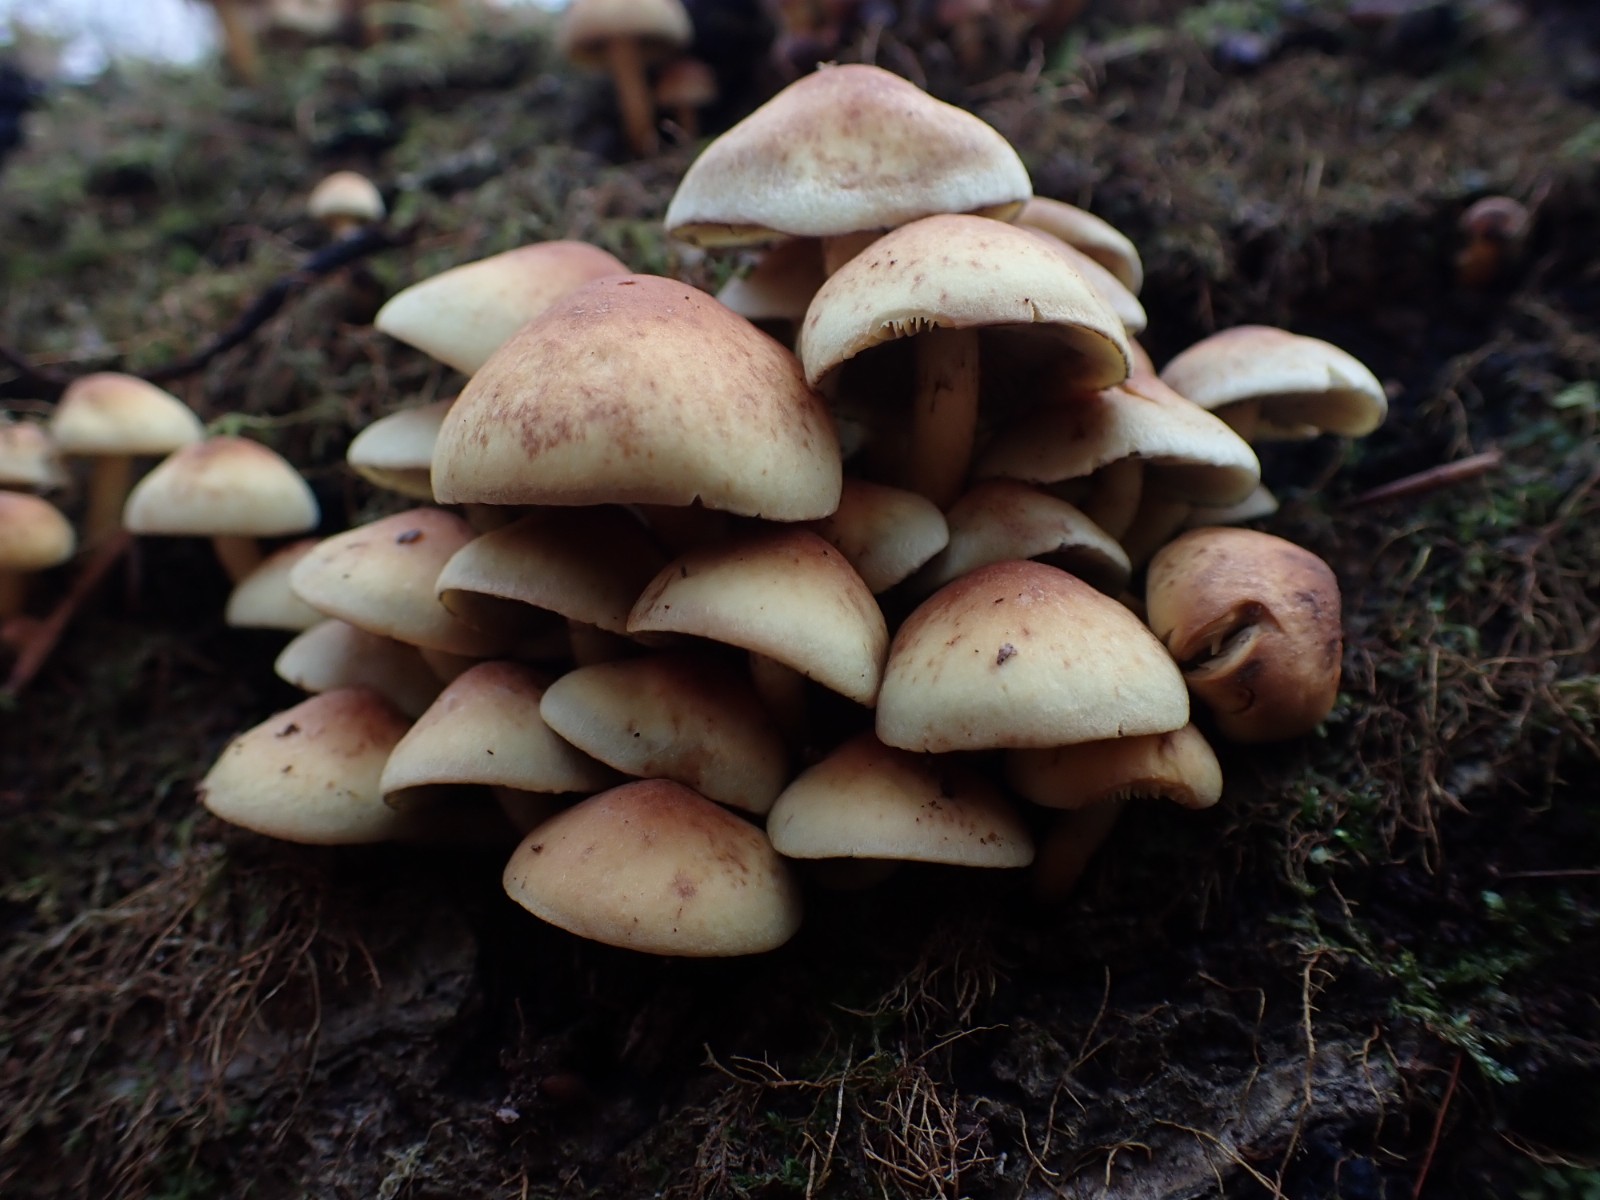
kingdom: Fungi
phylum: Basidiomycota
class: Agaricomycetes
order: Agaricales
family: Strophariaceae
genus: Hypholoma
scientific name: Hypholoma
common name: svovlhat
